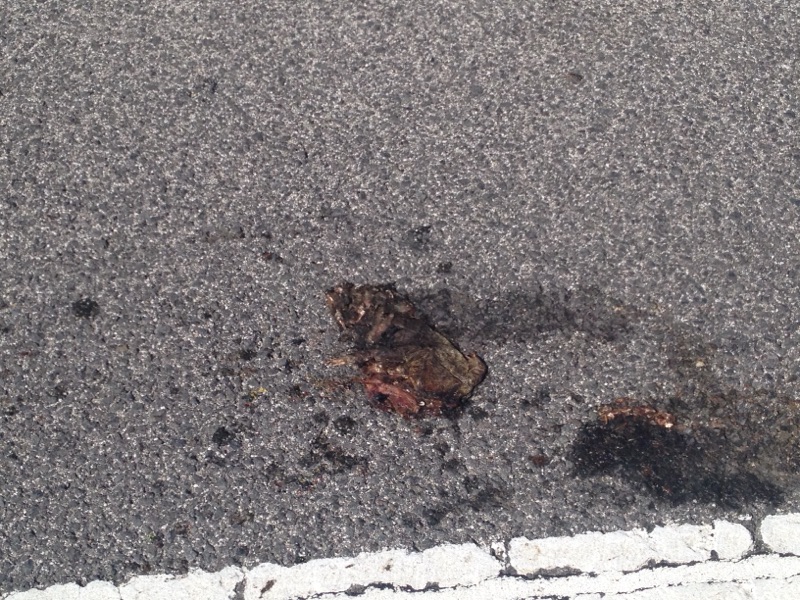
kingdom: Animalia
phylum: Chordata
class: Amphibia
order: Anura
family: Bufonidae
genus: Bufo
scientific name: Bufo bufo
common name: Common toad
